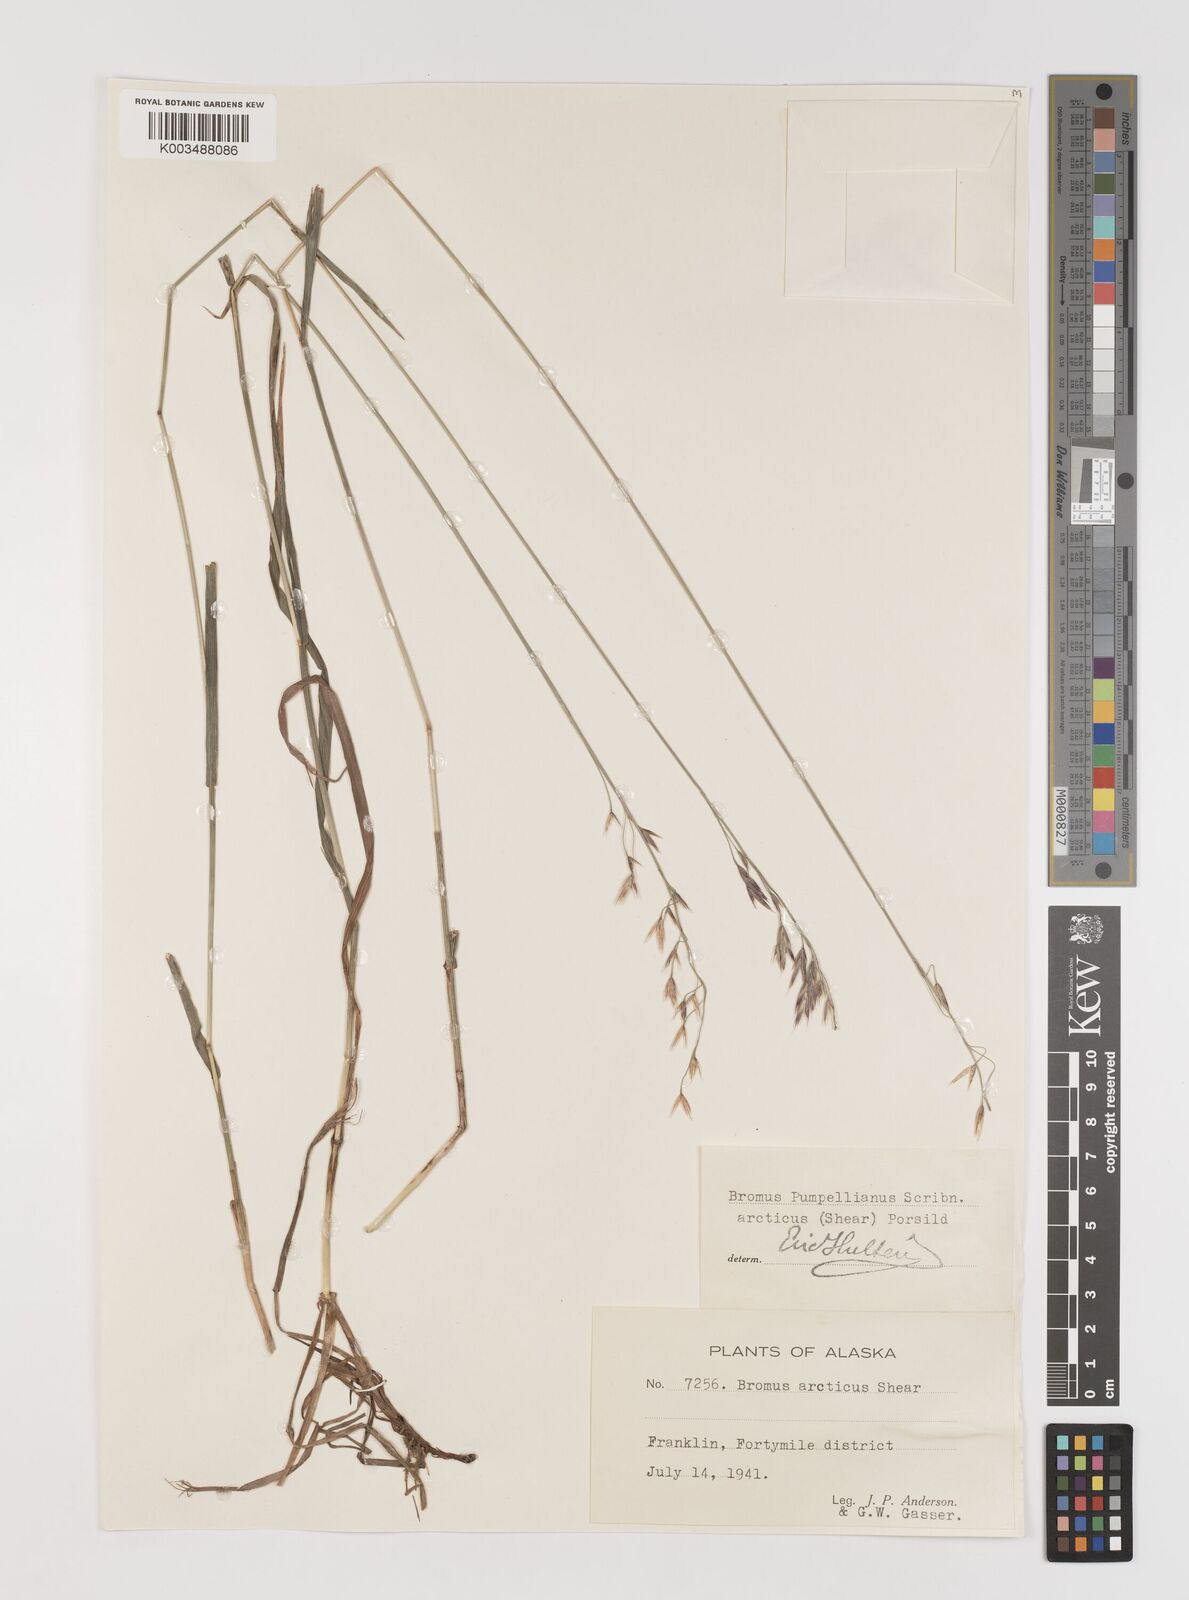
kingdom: Plantae
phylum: Tracheophyta
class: Liliopsida
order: Poales
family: Poaceae
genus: Bromus
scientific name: Bromus pumpellianus
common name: Pumpelly's brome
